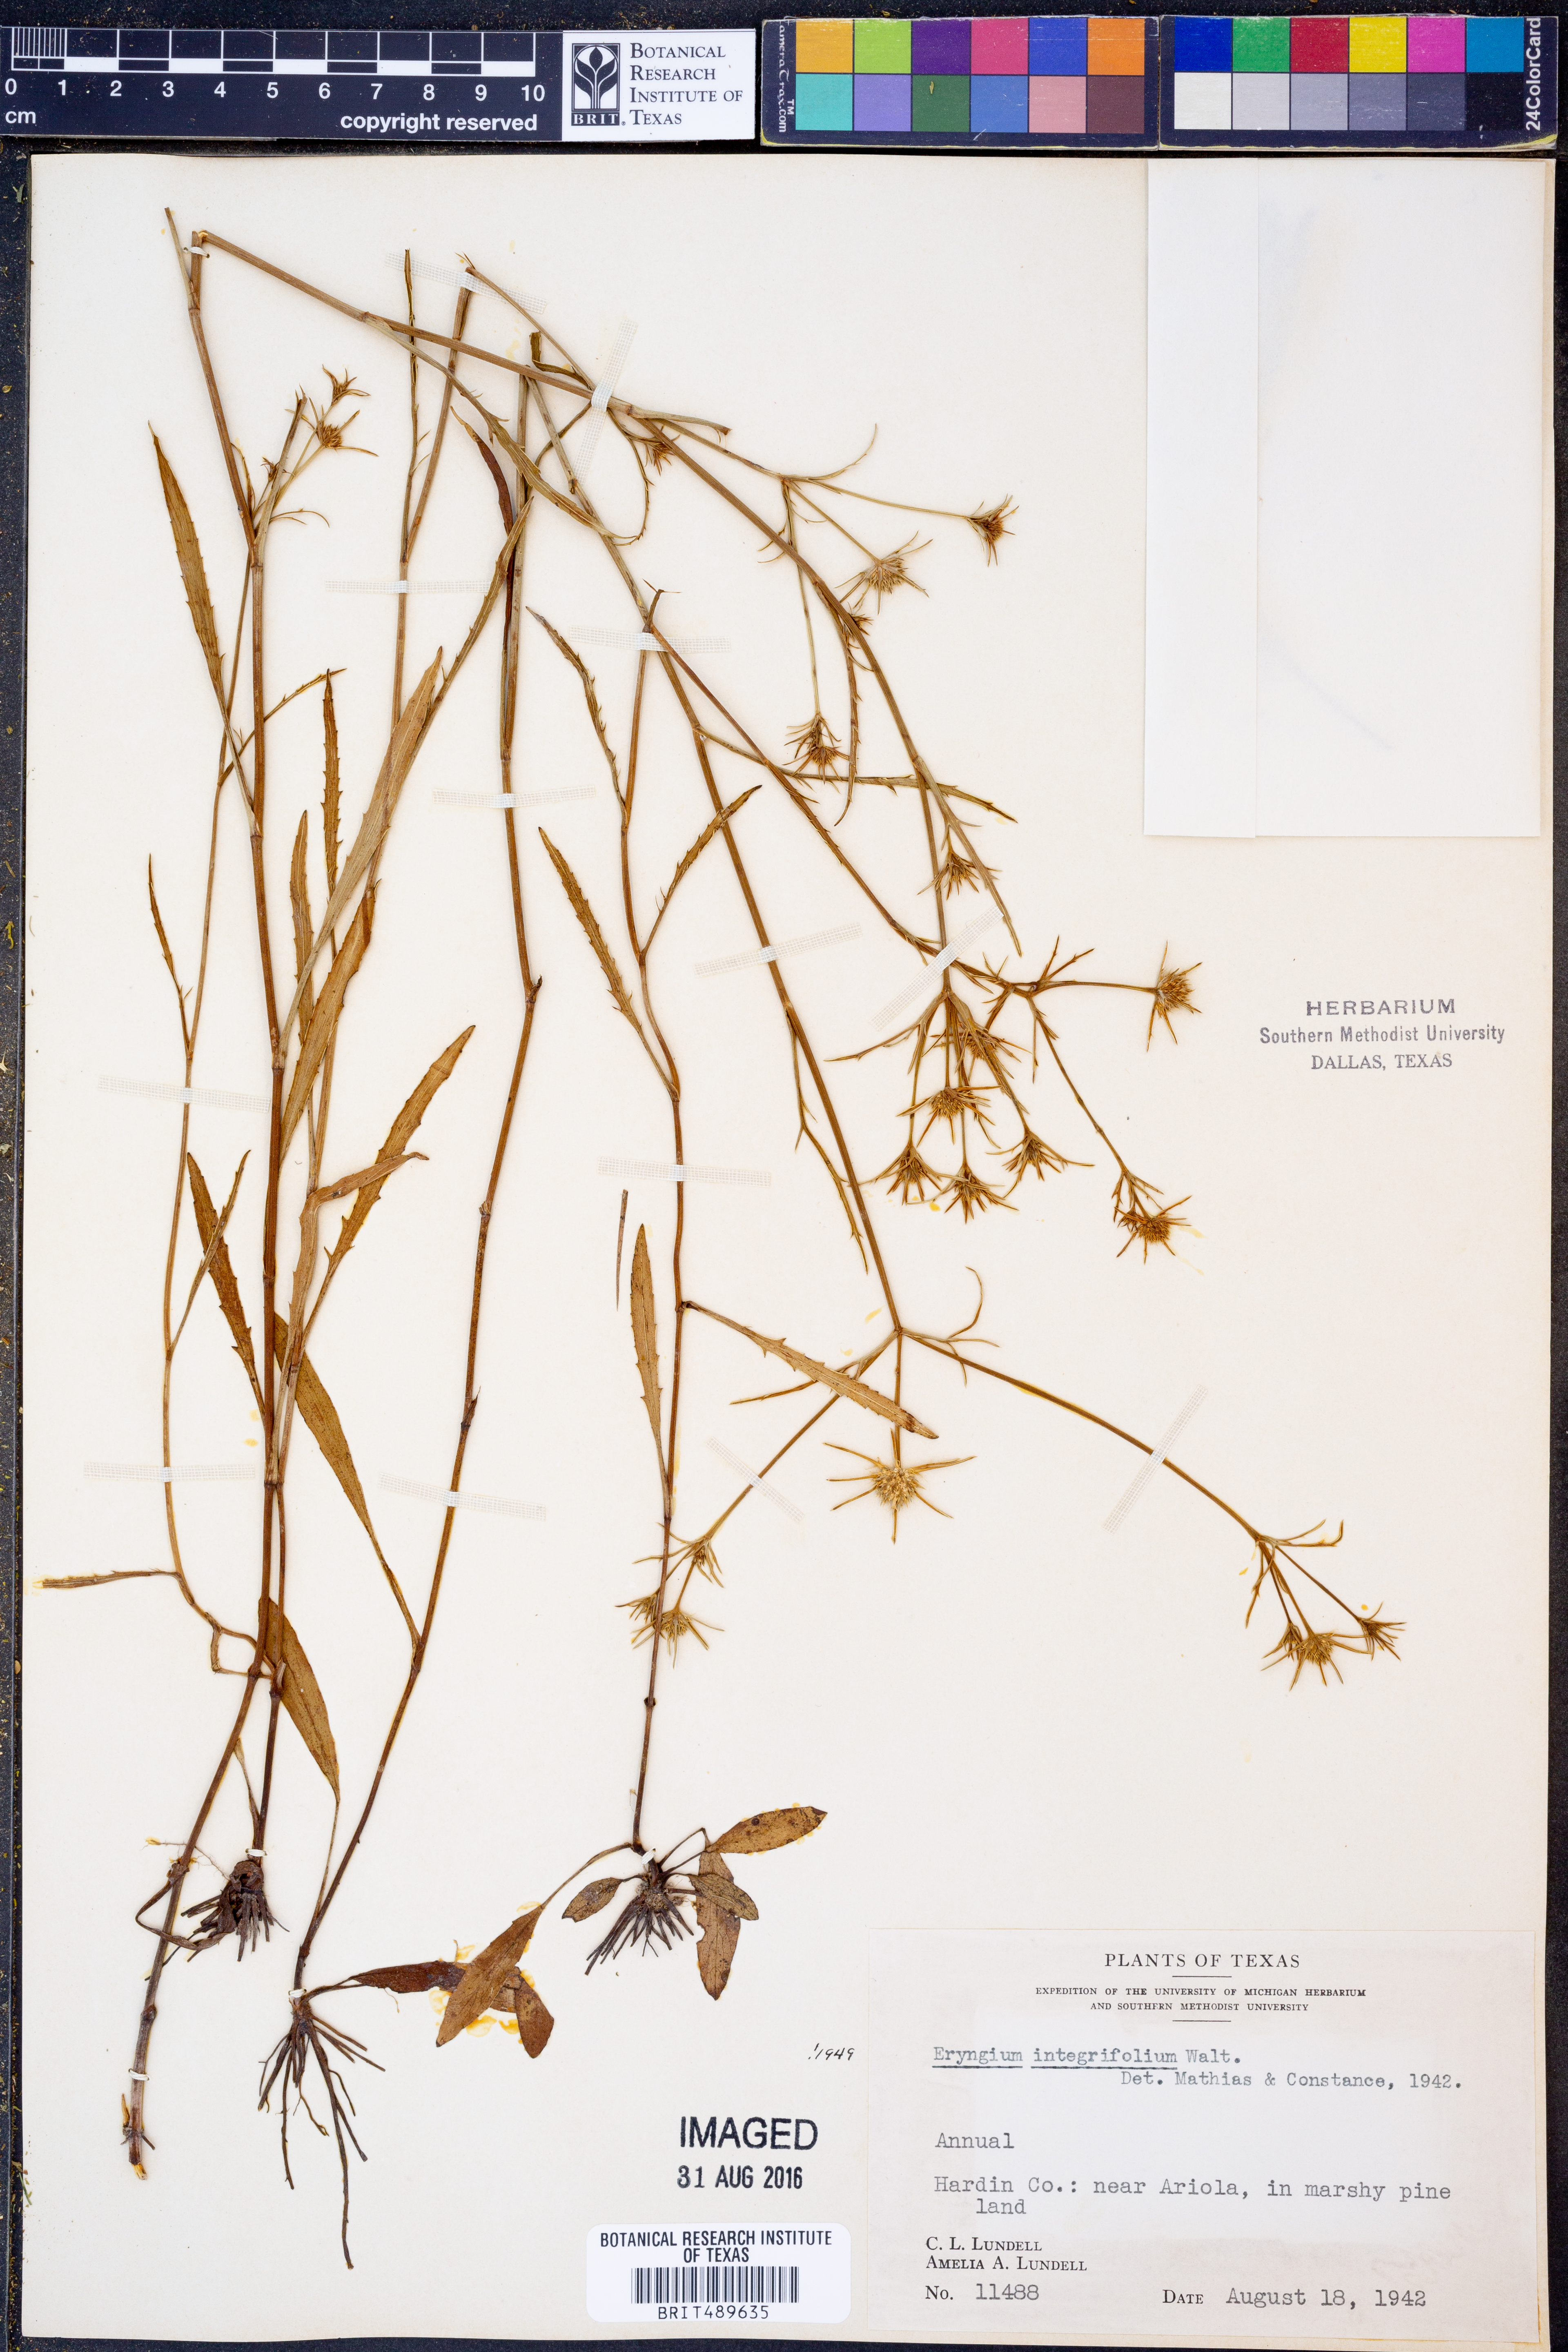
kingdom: Plantae
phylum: Tracheophyta
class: Magnoliopsida
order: Apiales
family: Apiaceae
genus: Eryngium
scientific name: Eryngium integrifolium
